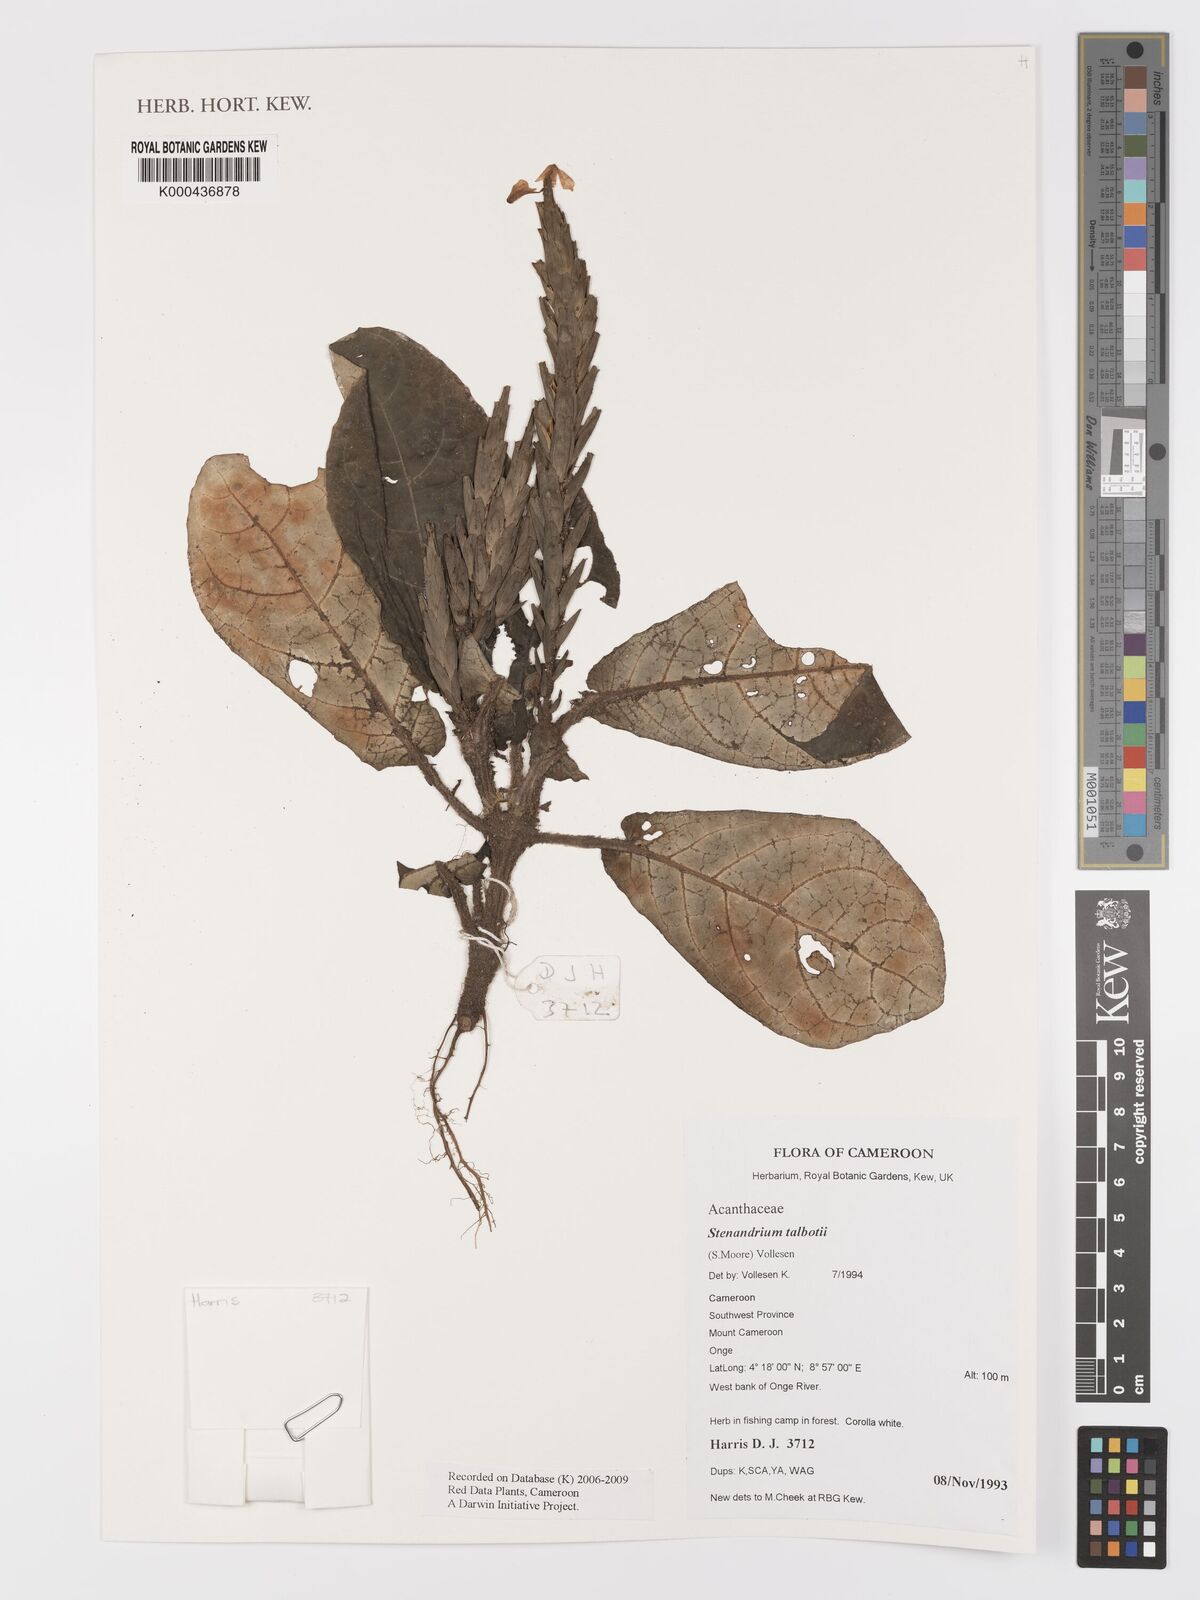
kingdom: Plantae
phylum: Tracheophyta
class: Magnoliopsida
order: Lamiales
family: Acanthaceae
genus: Stenandriopsis
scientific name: Stenandriopsis talbotii
